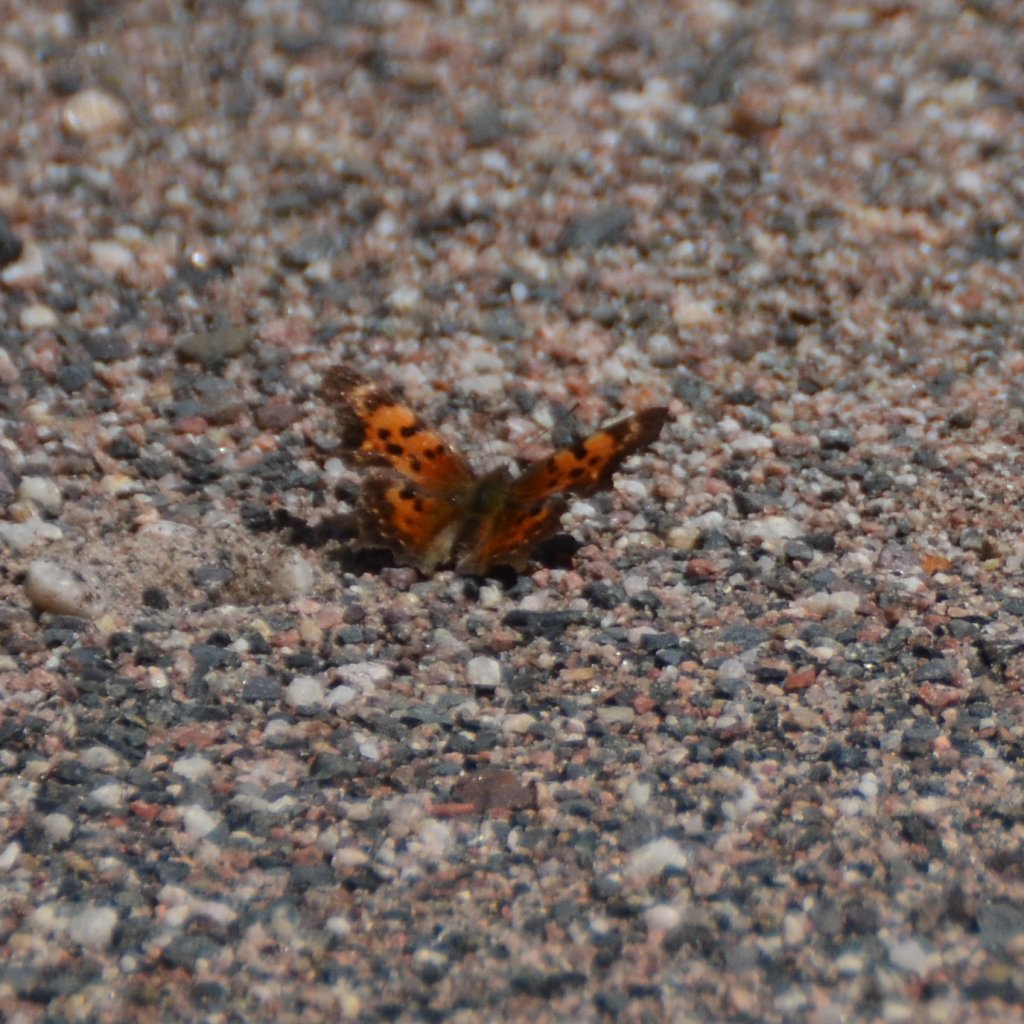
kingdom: Animalia
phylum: Arthropoda
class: Insecta
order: Lepidoptera
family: Nymphalidae
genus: Polygonia
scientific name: Polygonia faunus
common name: Green Comma
